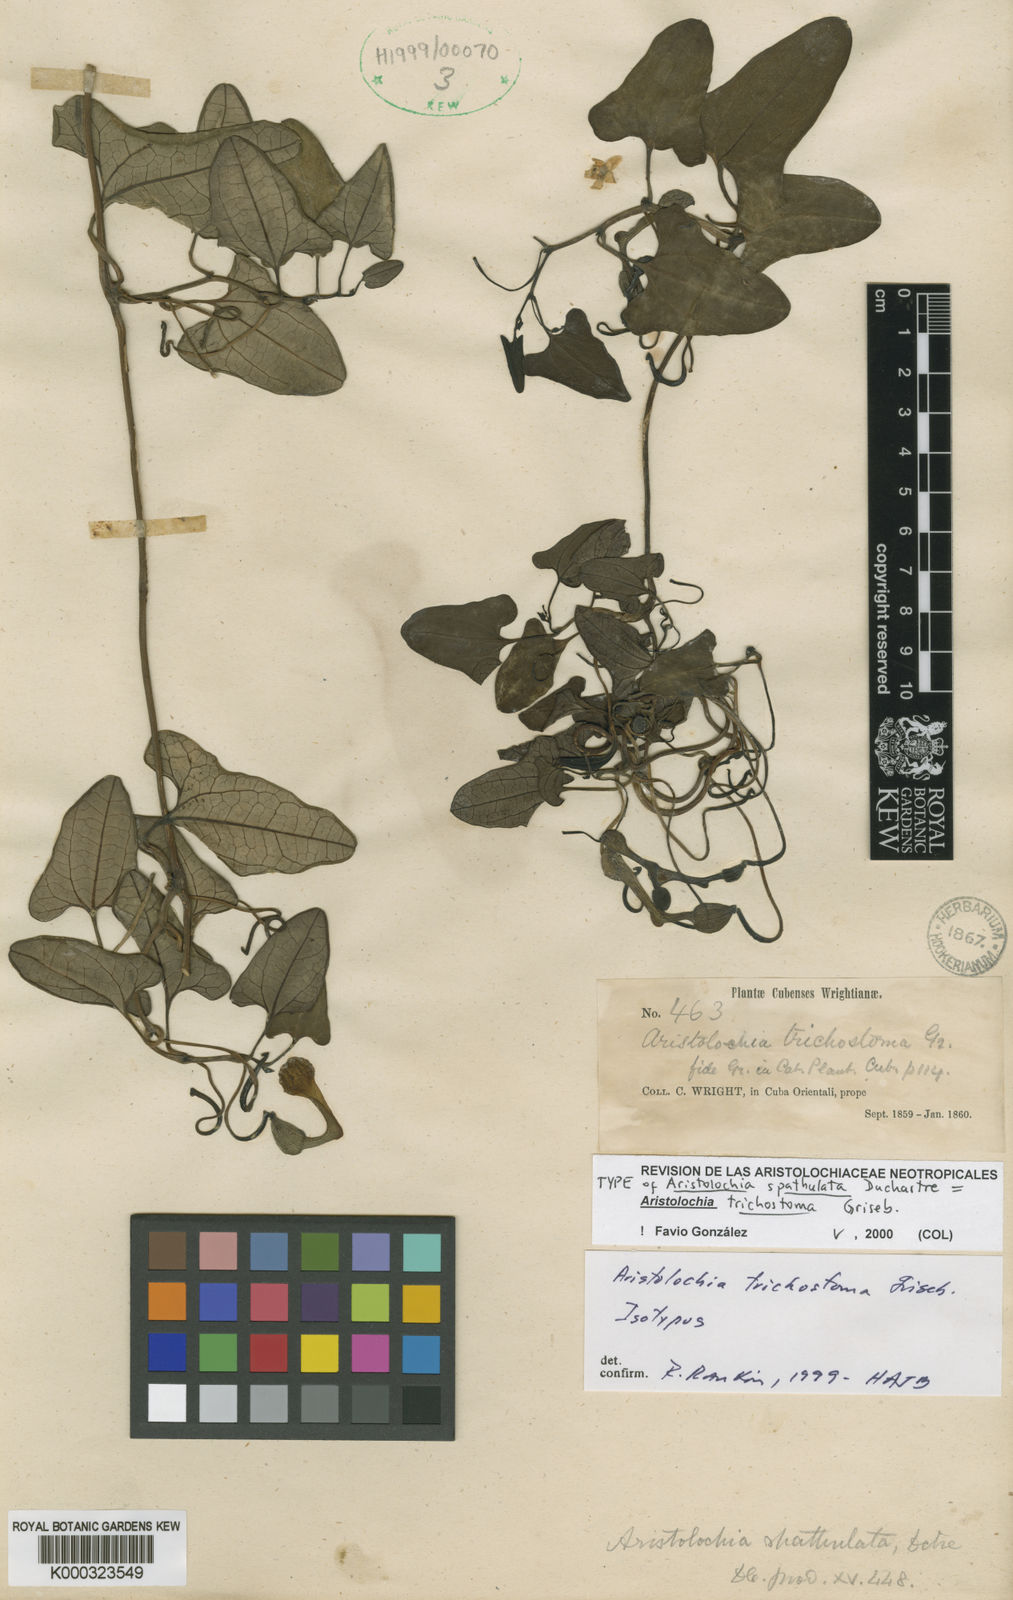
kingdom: Plantae
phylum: Tracheophyta
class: Magnoliopsida
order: Piperales
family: Aristolochiaceae
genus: Aristolochia
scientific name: Aristolochia trichostoma
